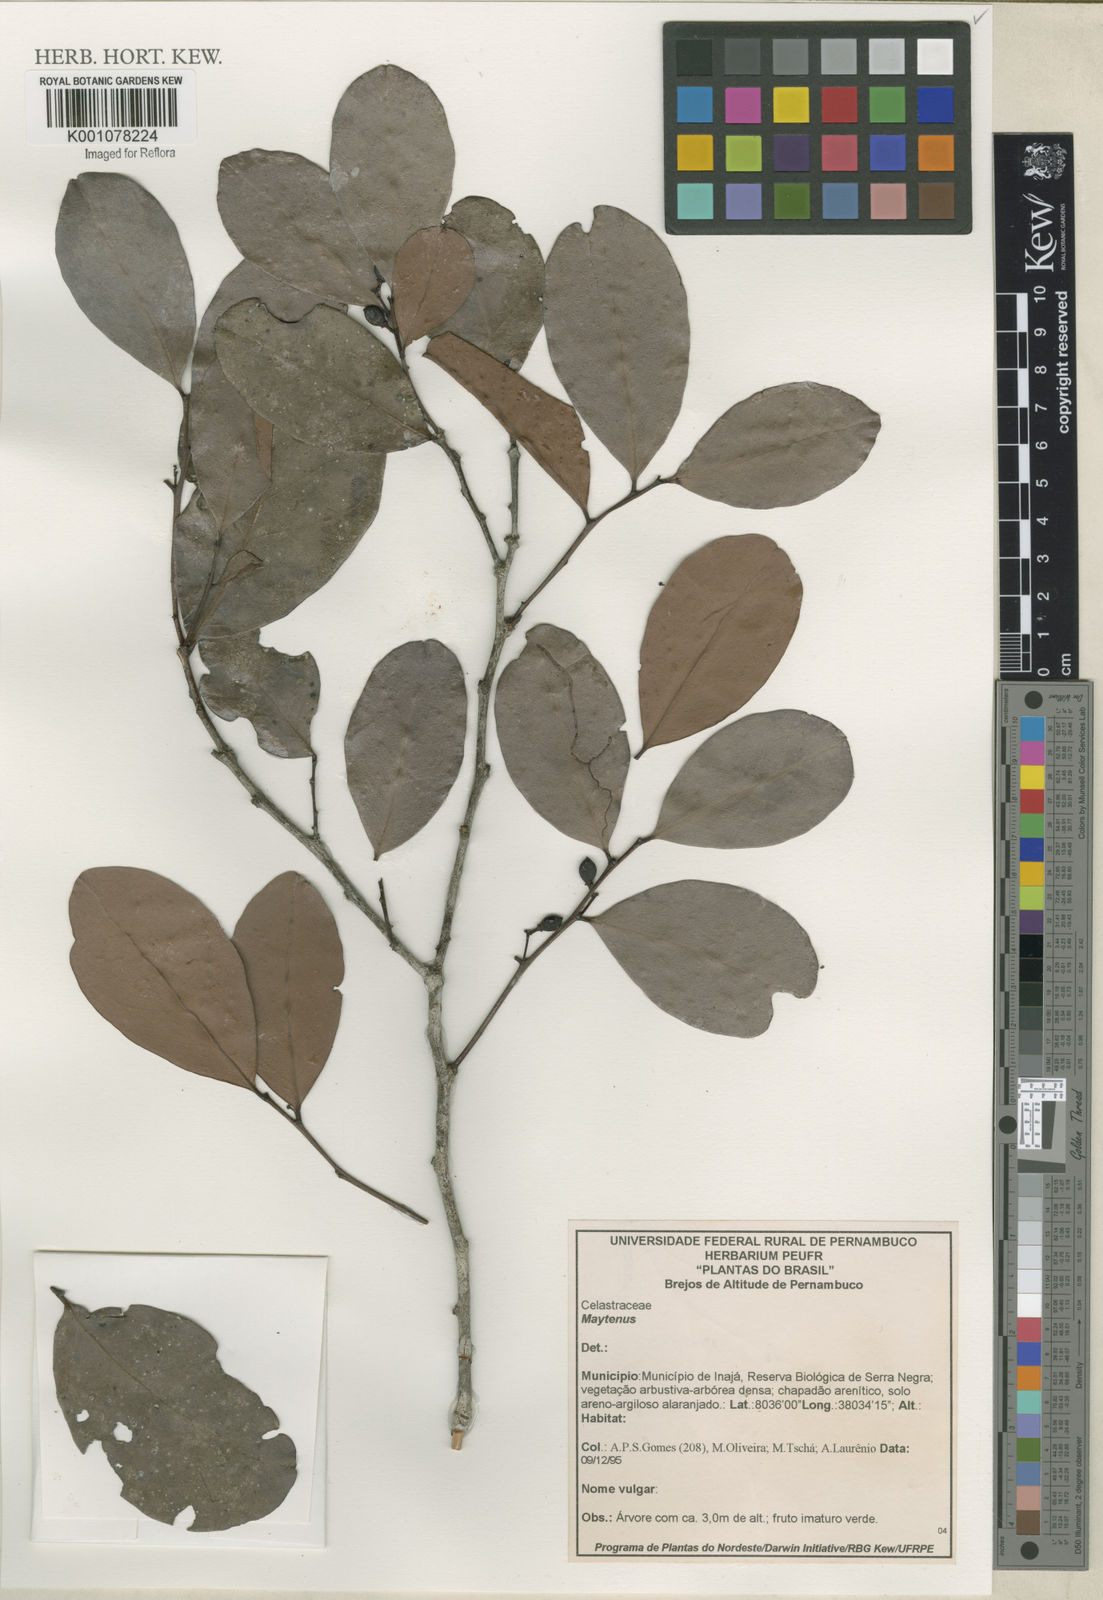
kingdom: Plantae
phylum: Tracheophyta
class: Magnoliopsida
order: Celastrales
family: Celastraceae
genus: Maytenus
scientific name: Maytenus
